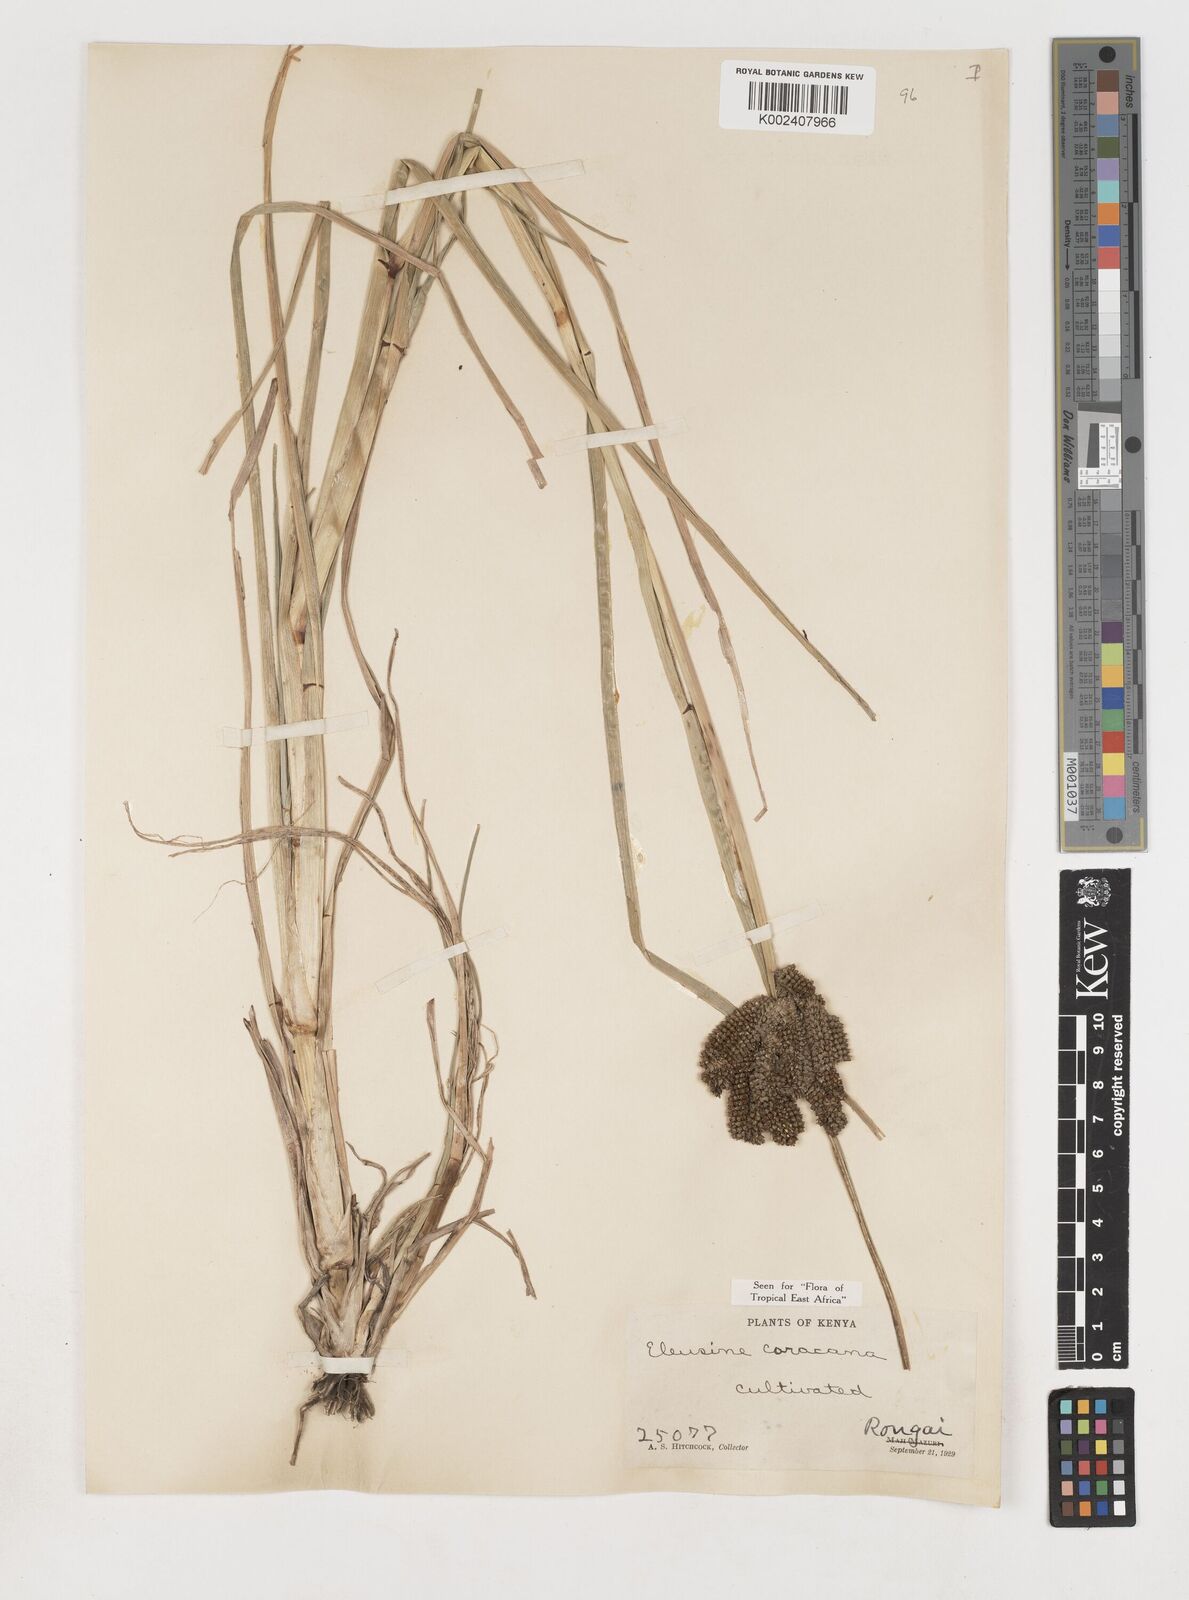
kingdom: Plantae
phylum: Tracheophyta
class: Liliopsida
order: Poales
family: Poaceae
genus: Eleusine
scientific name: Eleusine coracana
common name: Finger millet
